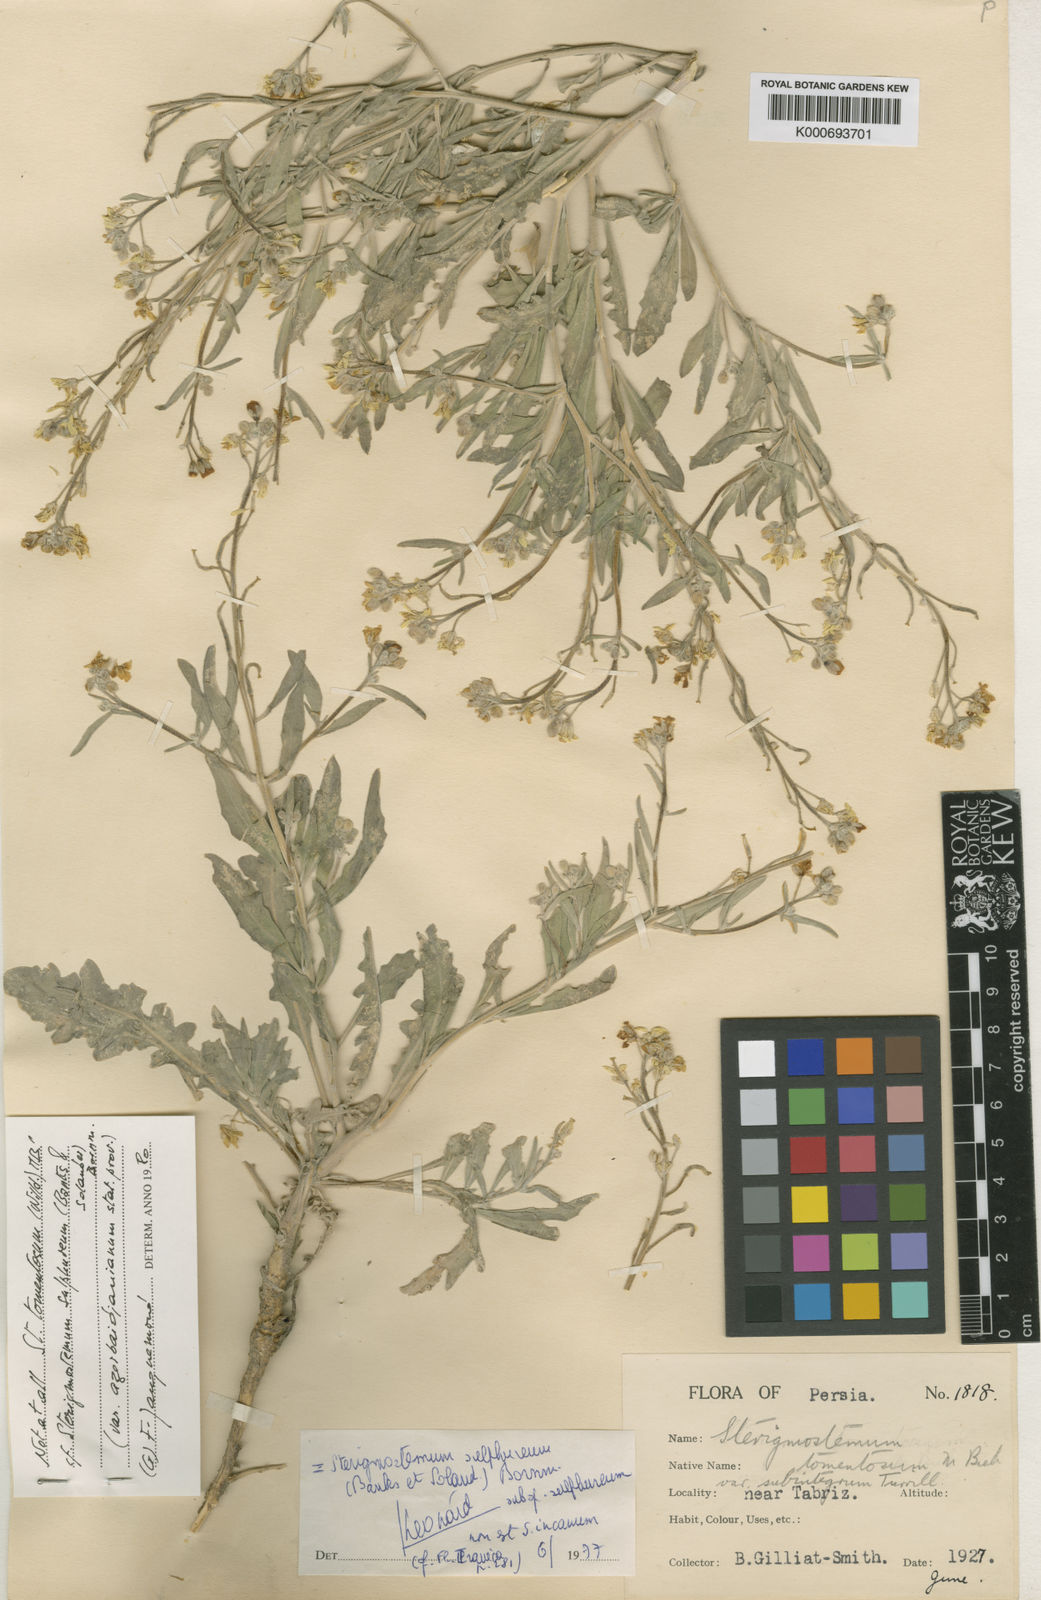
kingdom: Plantae
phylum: Tracheophyta
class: Magnoliopsida
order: Brassicales
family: Brassicaceae
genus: Sterigmostemum
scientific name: Sterigmostemum
